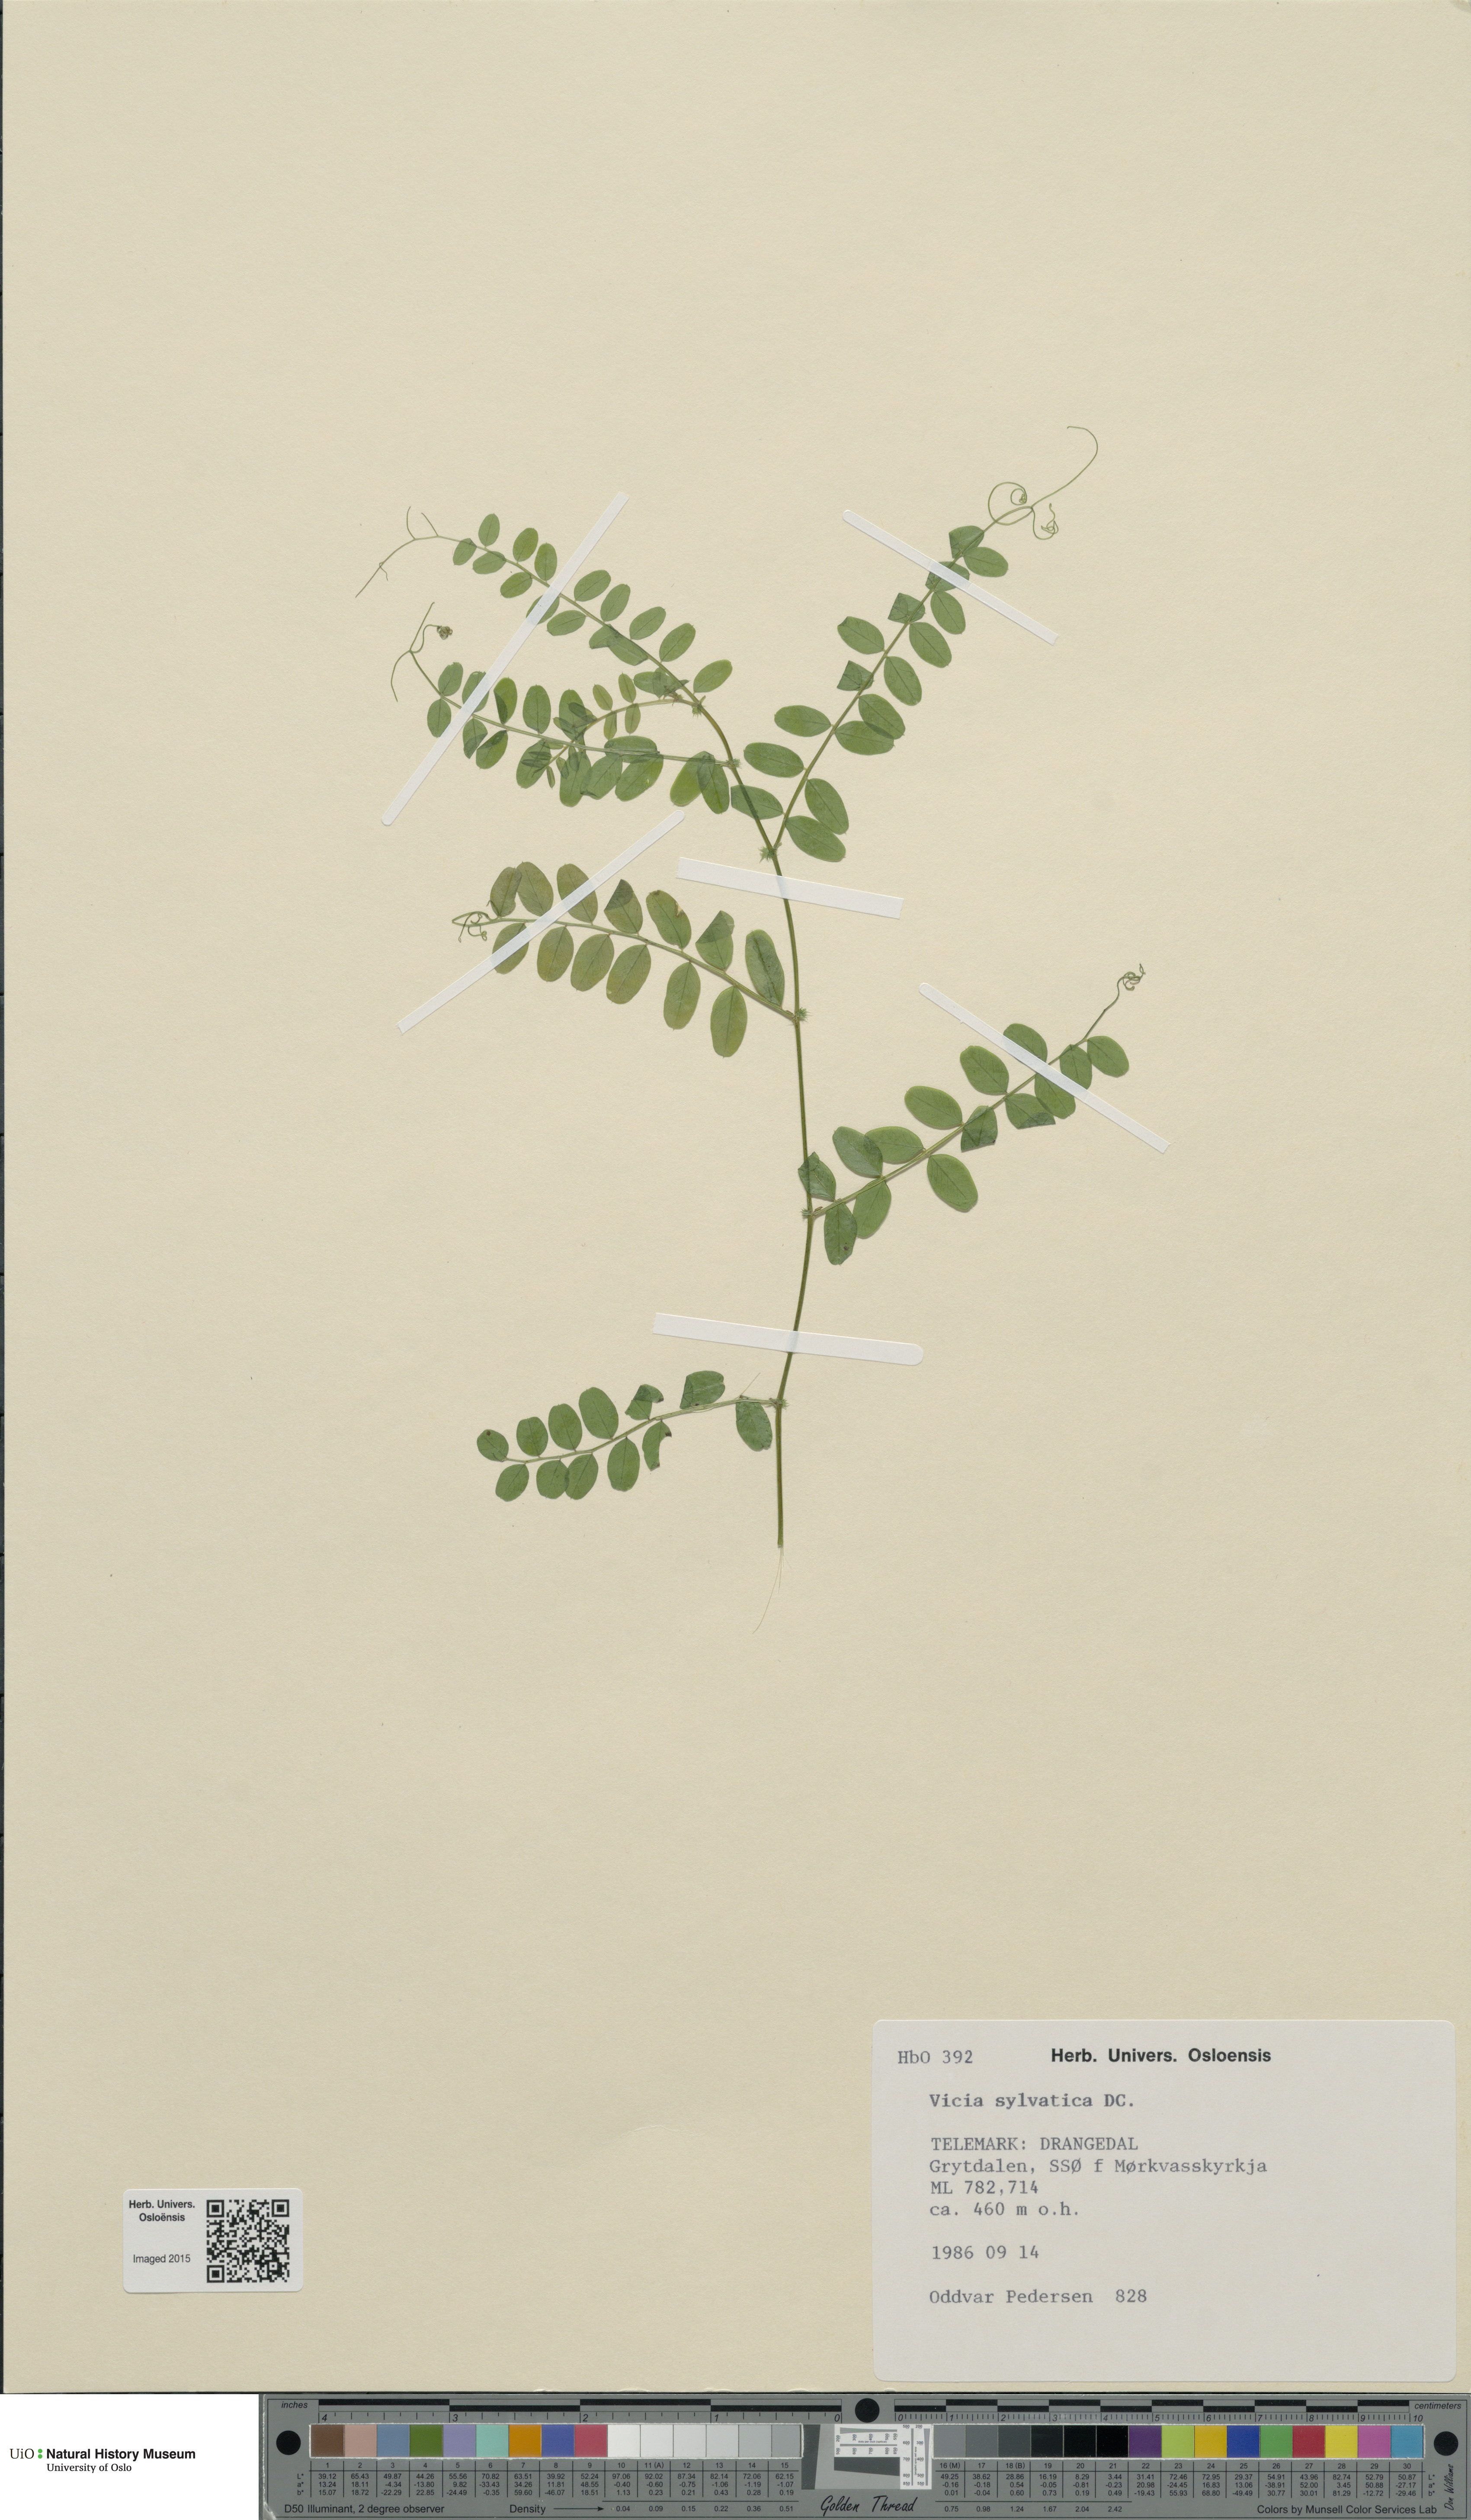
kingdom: Plantae
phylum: Tracheophyta
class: Magnoliopsida
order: Fabales
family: Fabaceae
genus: Vicia
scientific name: Vicia sylvatica
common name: Wood vetch
